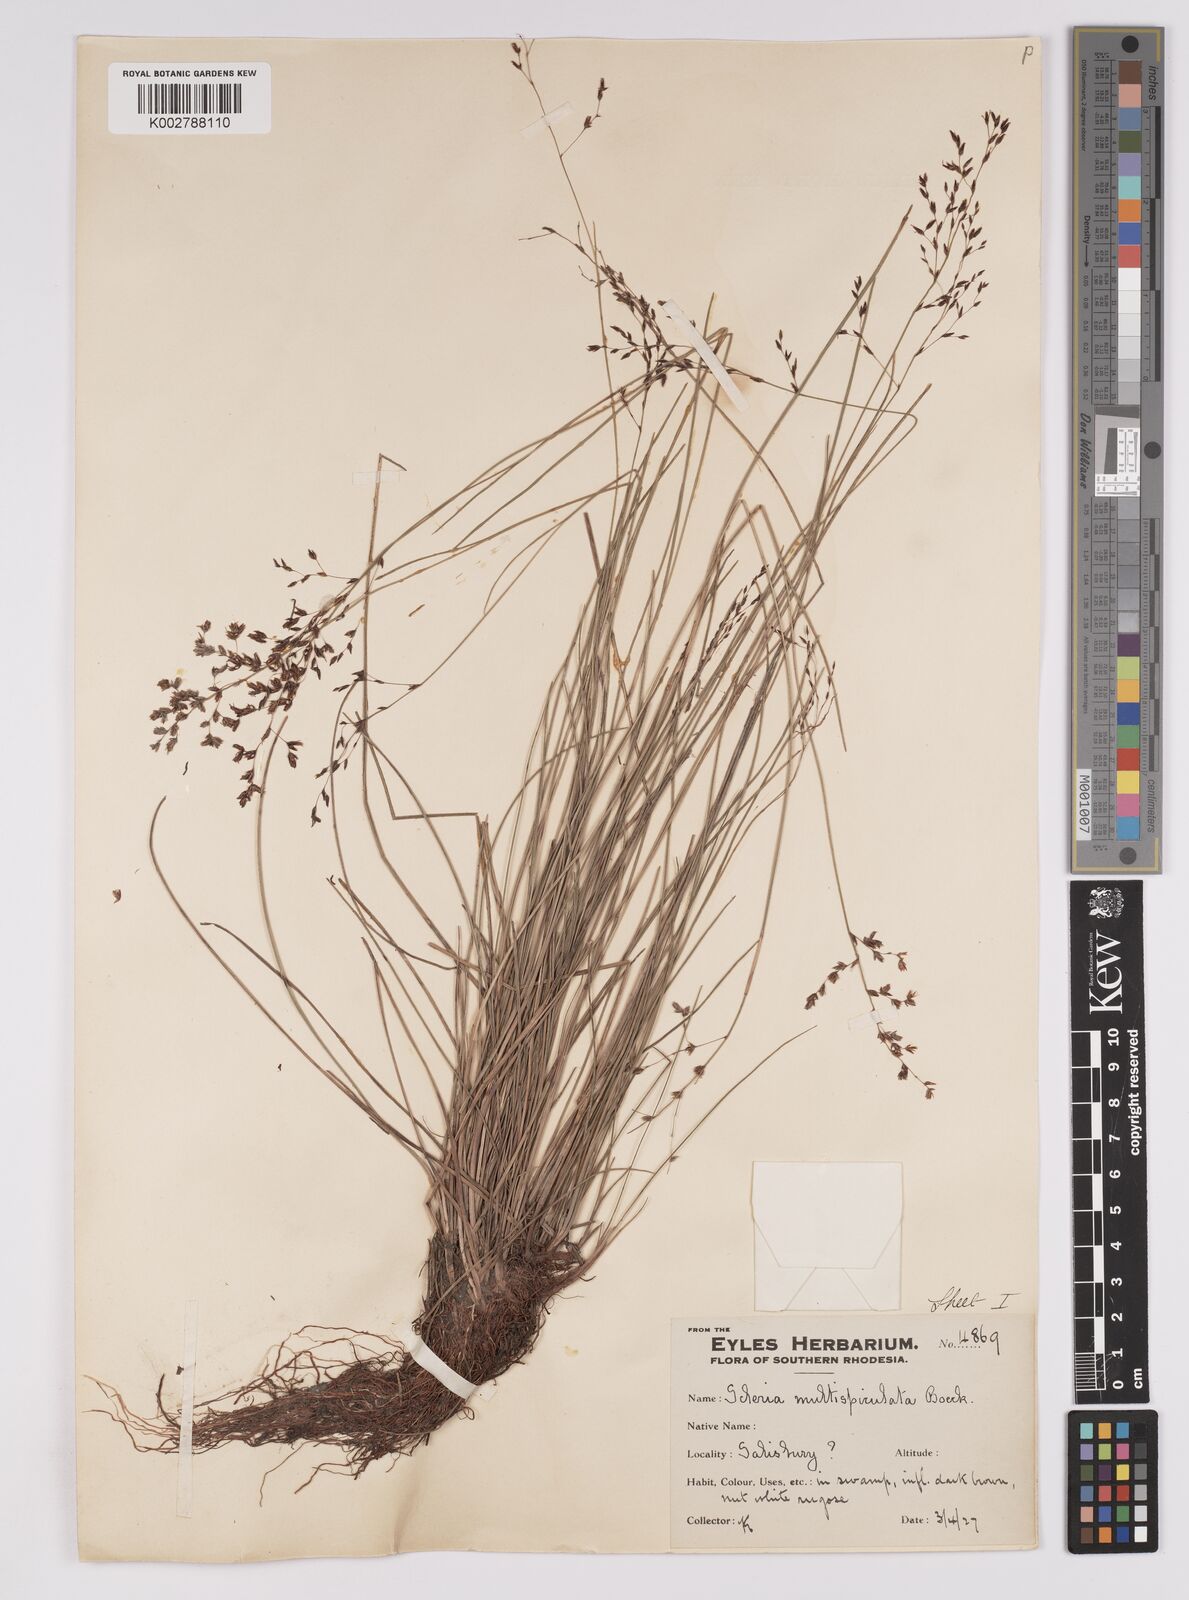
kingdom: Plantae
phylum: Tracheophyta
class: Liliopsida
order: Poales
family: Cyperaceae
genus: Scleria
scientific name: Scleria pooides
